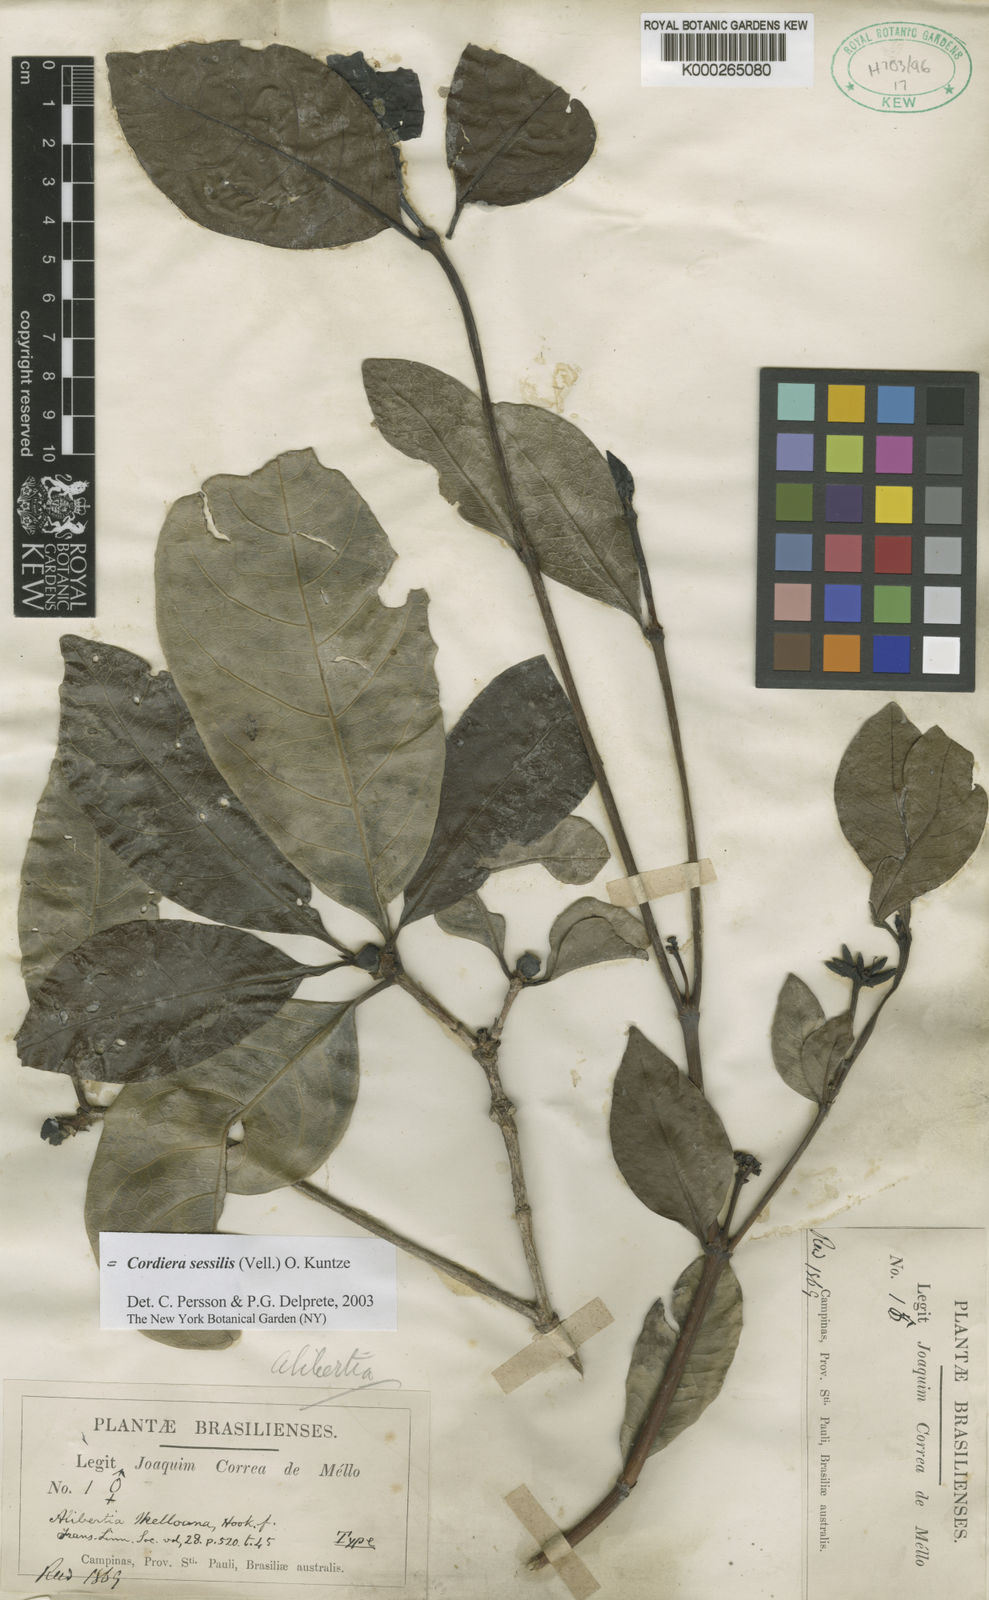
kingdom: Plantae
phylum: Tracheophyta
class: Magnoliopsida
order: Gentianales
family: Rubiaceae
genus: Cordiera
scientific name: Cordiera sessilis
